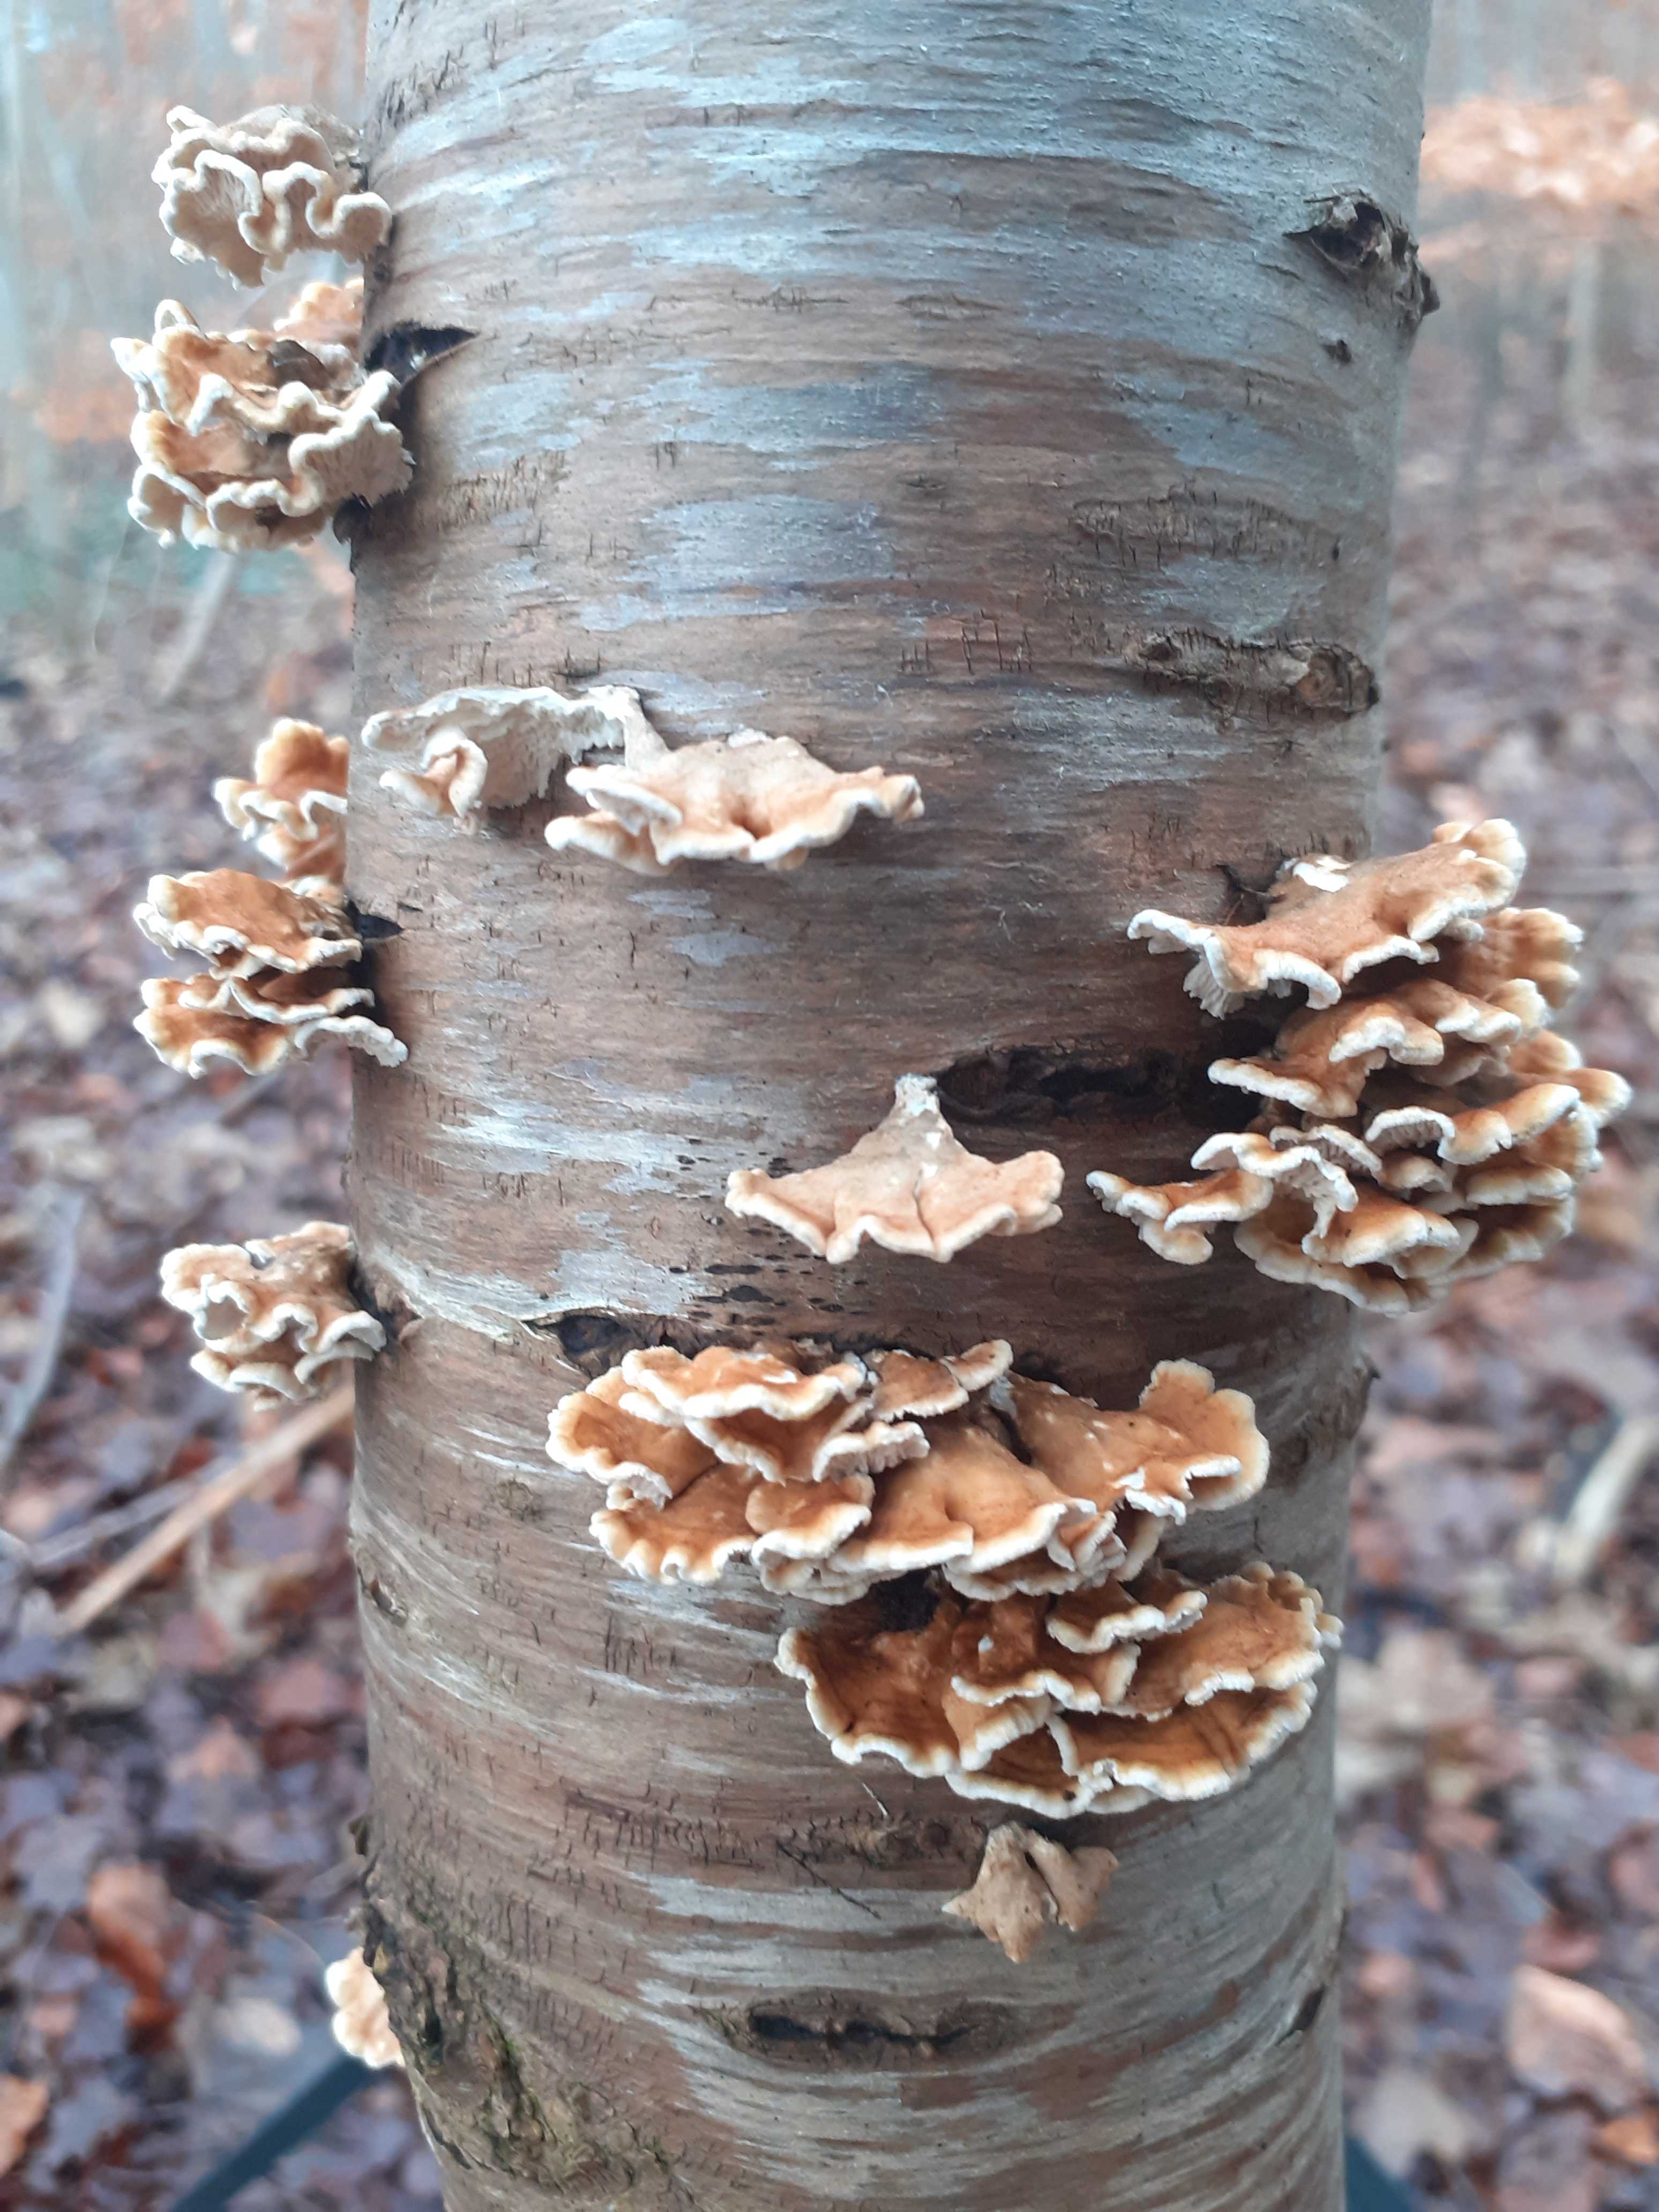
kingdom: Fungi
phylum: Basidiomycota
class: Agaricomycetes
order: Amylocorticiales
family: Amylocorticiaceae
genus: Plicaturopsis
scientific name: Plicaturopsis crispa
